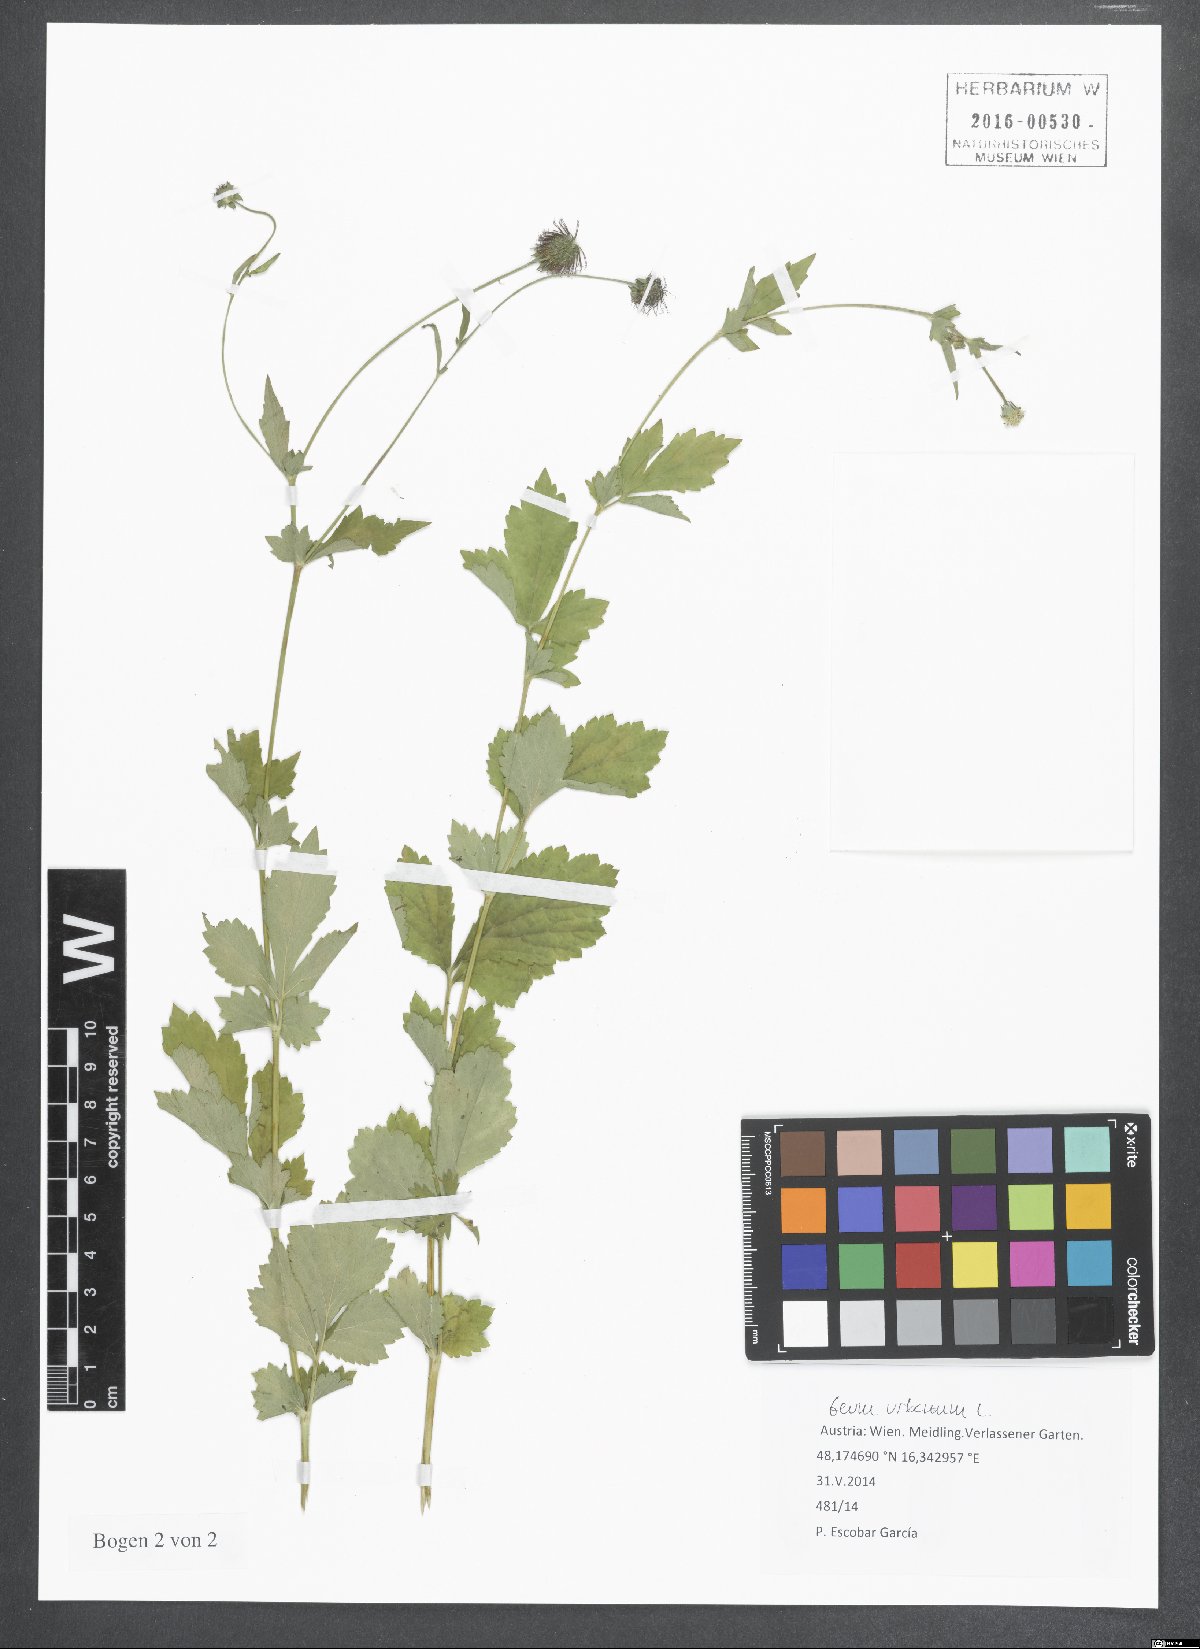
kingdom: Plantae
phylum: Tracheophyta
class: Magnoliopsida
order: Rosales
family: Rosaceae
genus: Geum
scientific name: Geum urbanum
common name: Wood avens
